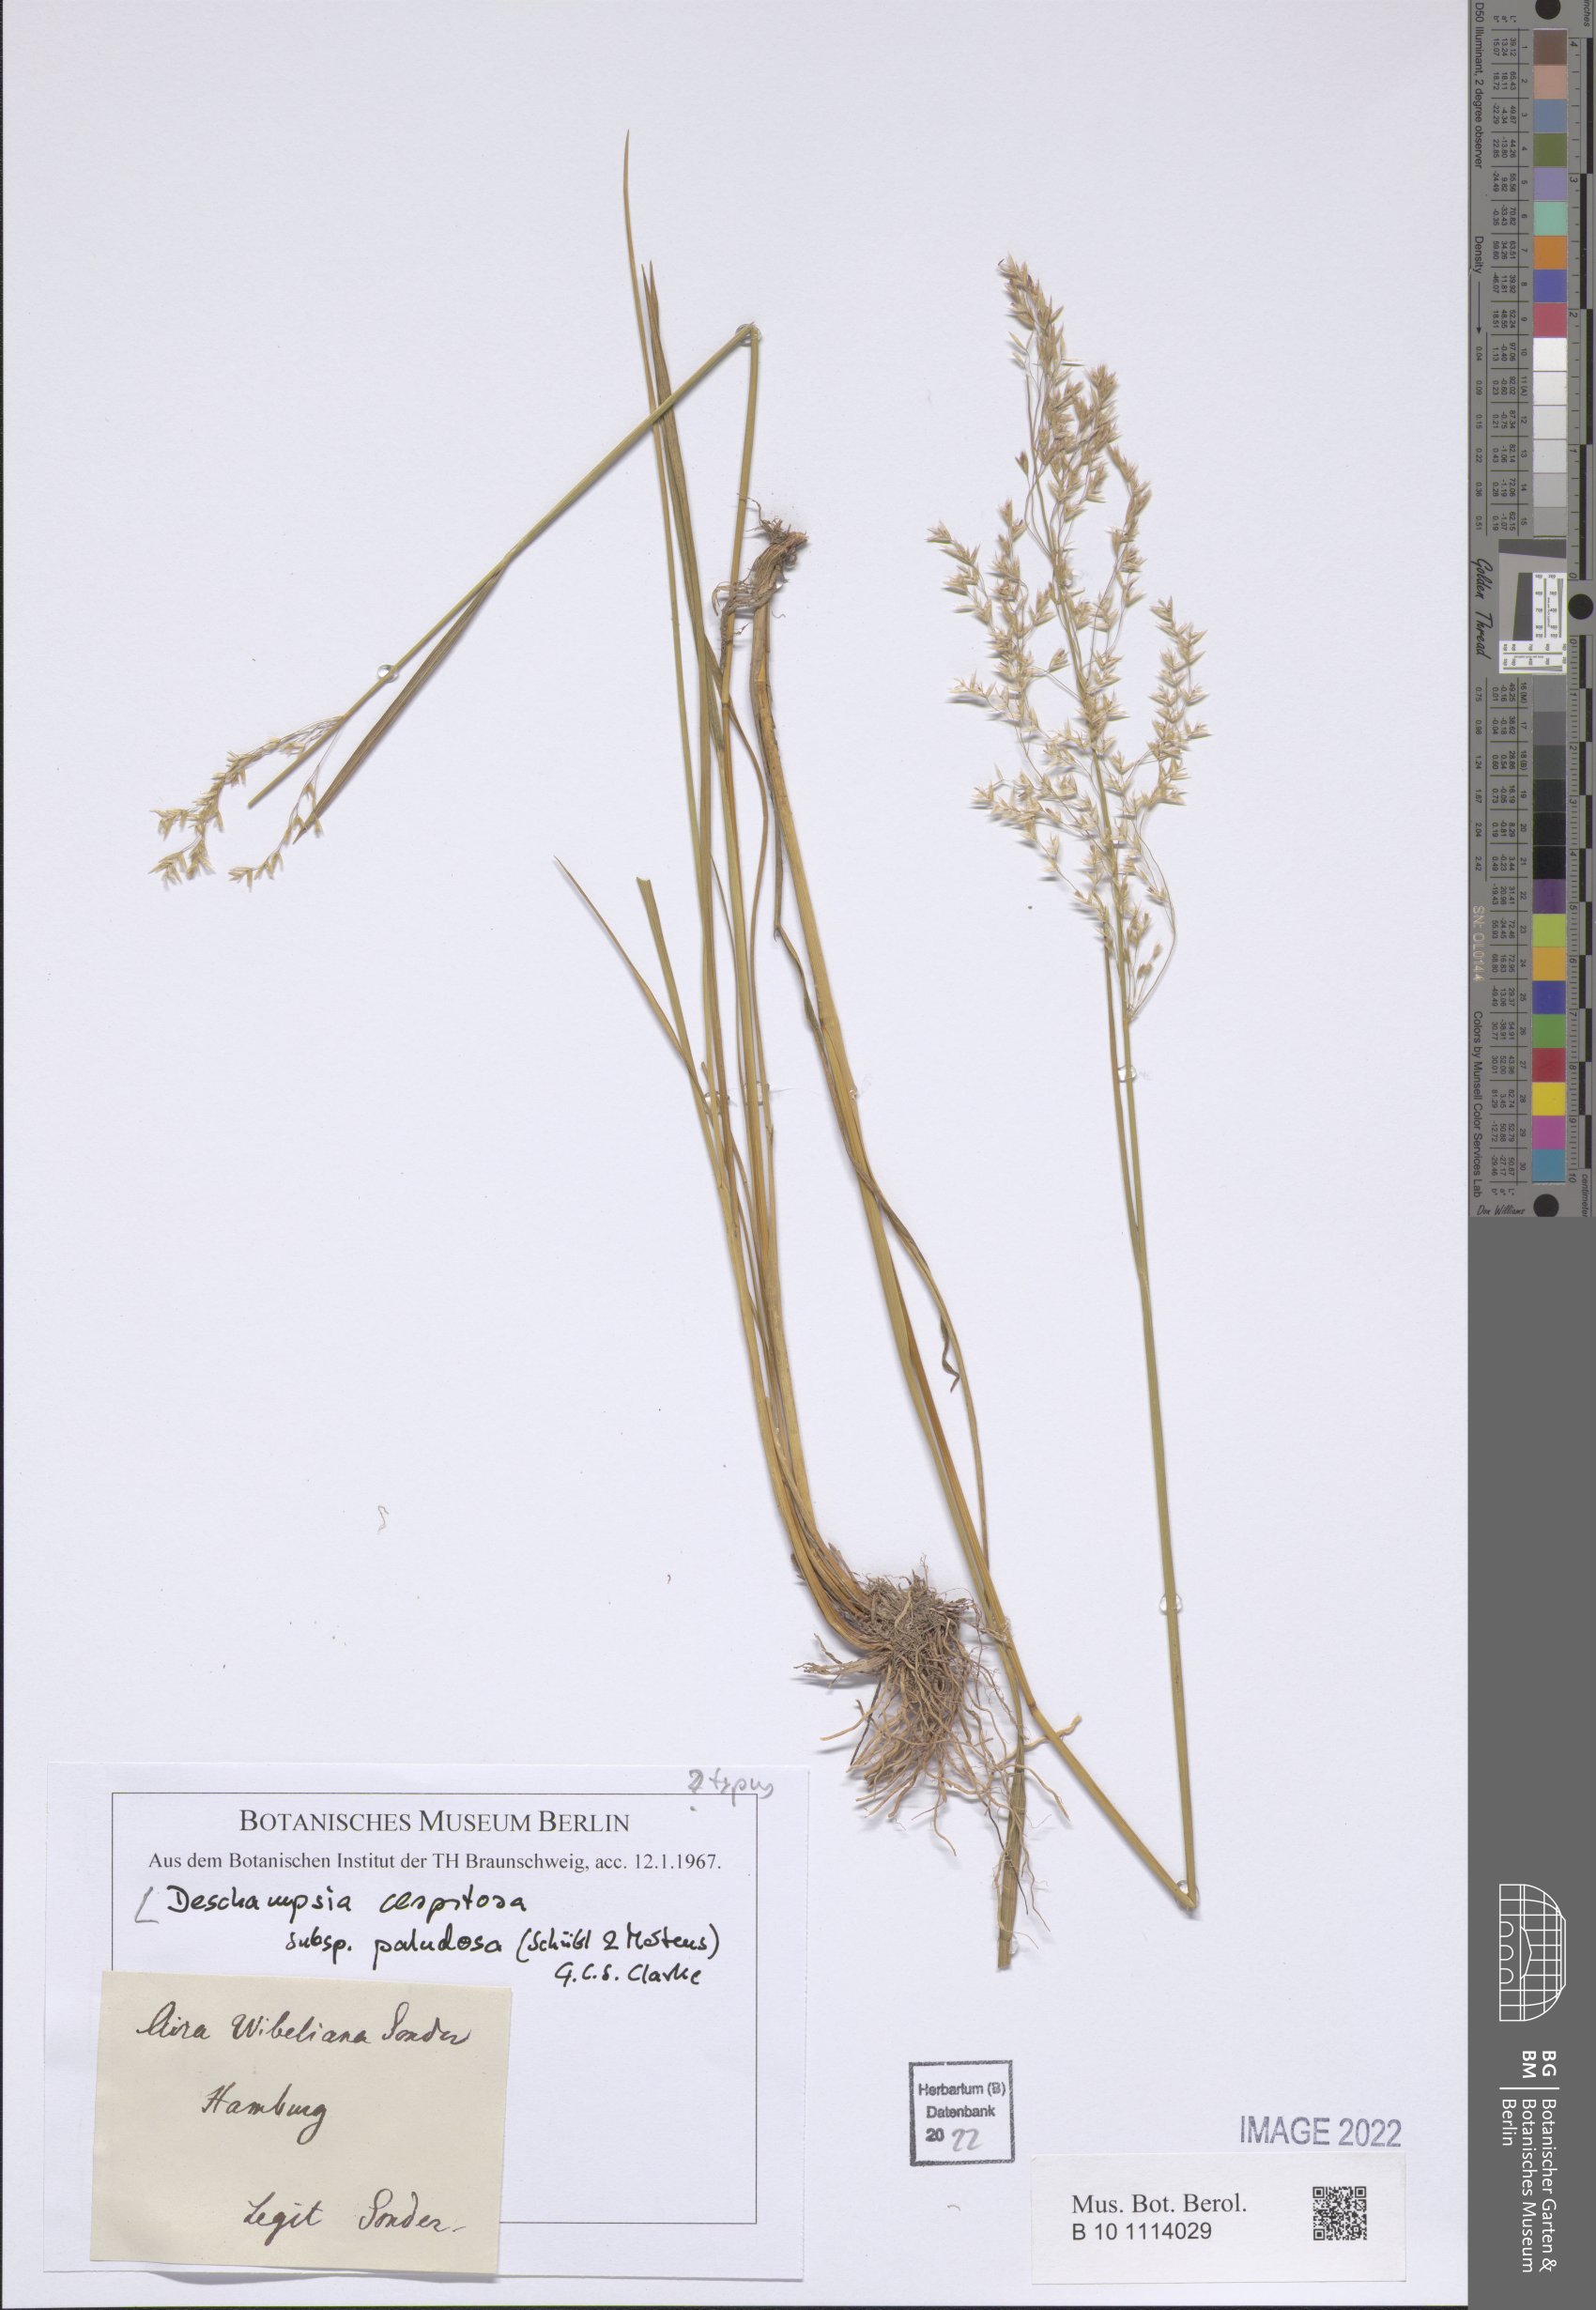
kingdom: Plantae
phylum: Tracheophyta
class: Liliopsida
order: Poales
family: Poaceae
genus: Deschampsia
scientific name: Deschampsia cespitosa
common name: Tufted hair-grass
